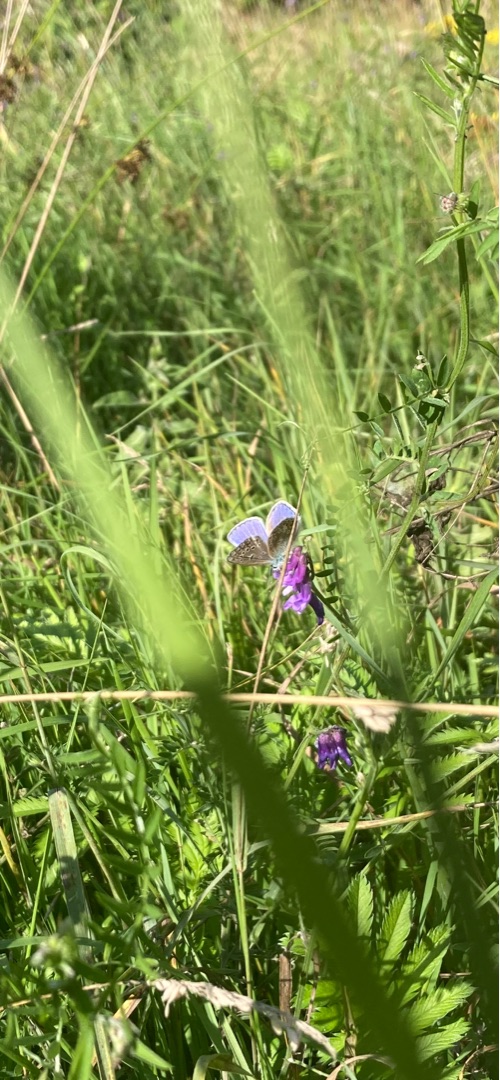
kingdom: Animalia
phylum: Arthropoda
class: Insecta
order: Lepidoptera
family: Lycaenidae
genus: Polyommatus
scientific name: Polyommatus icarus
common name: Almindelig blåfugl
